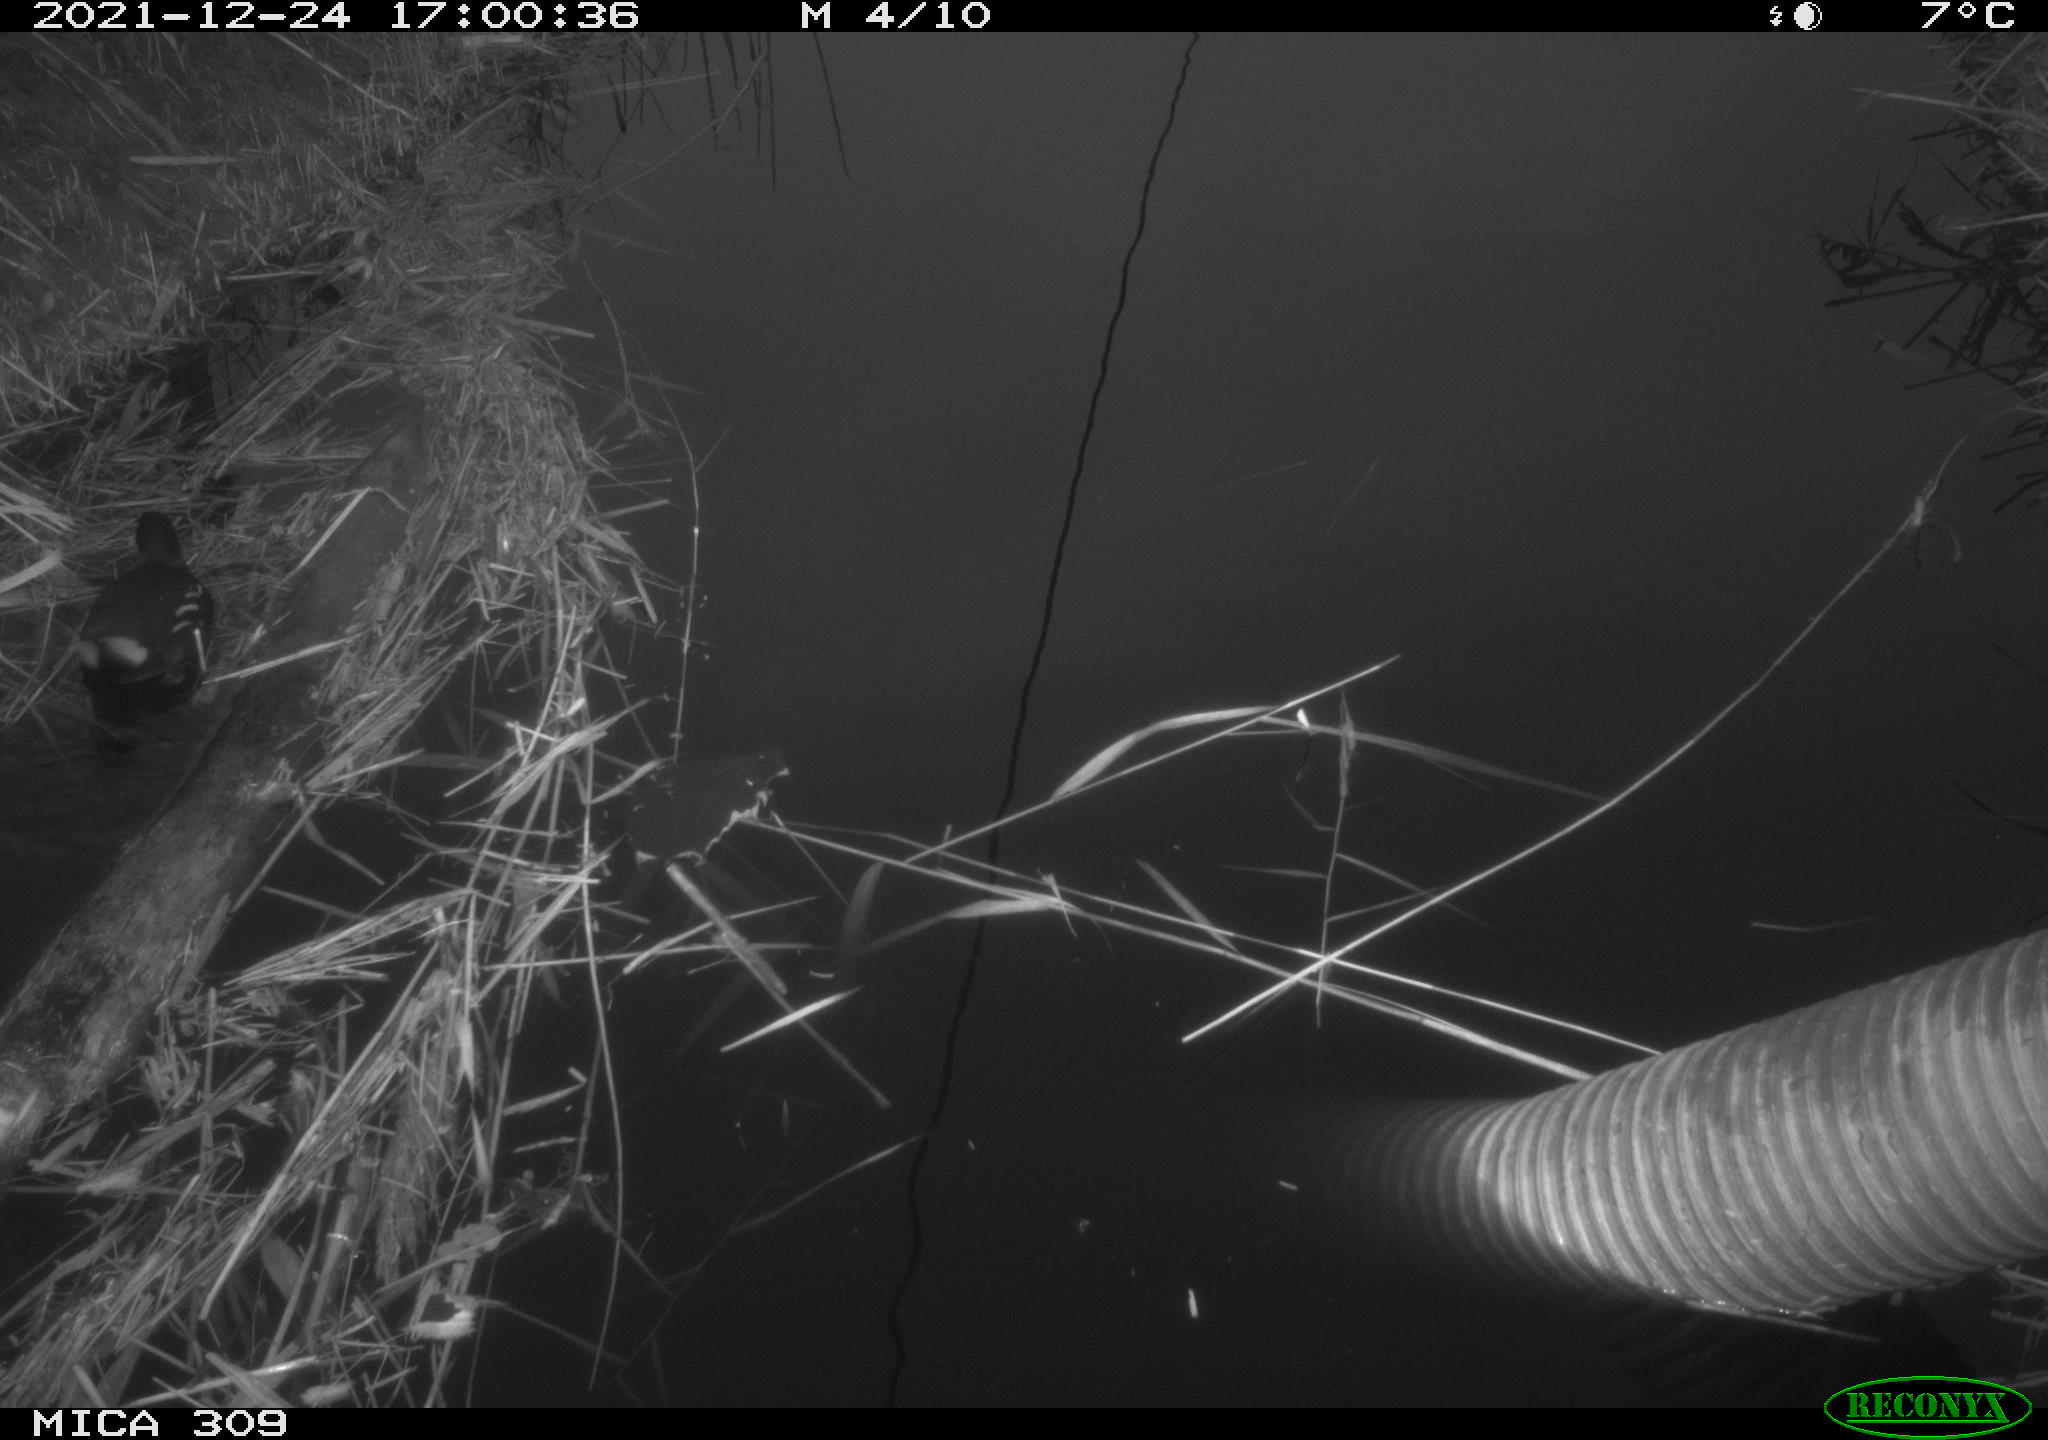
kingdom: Animalia
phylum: Chordata
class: Aves
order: Gruiformes
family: Rallidae
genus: Gallinula
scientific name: Gallinula chloropus
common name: Common moorhen
